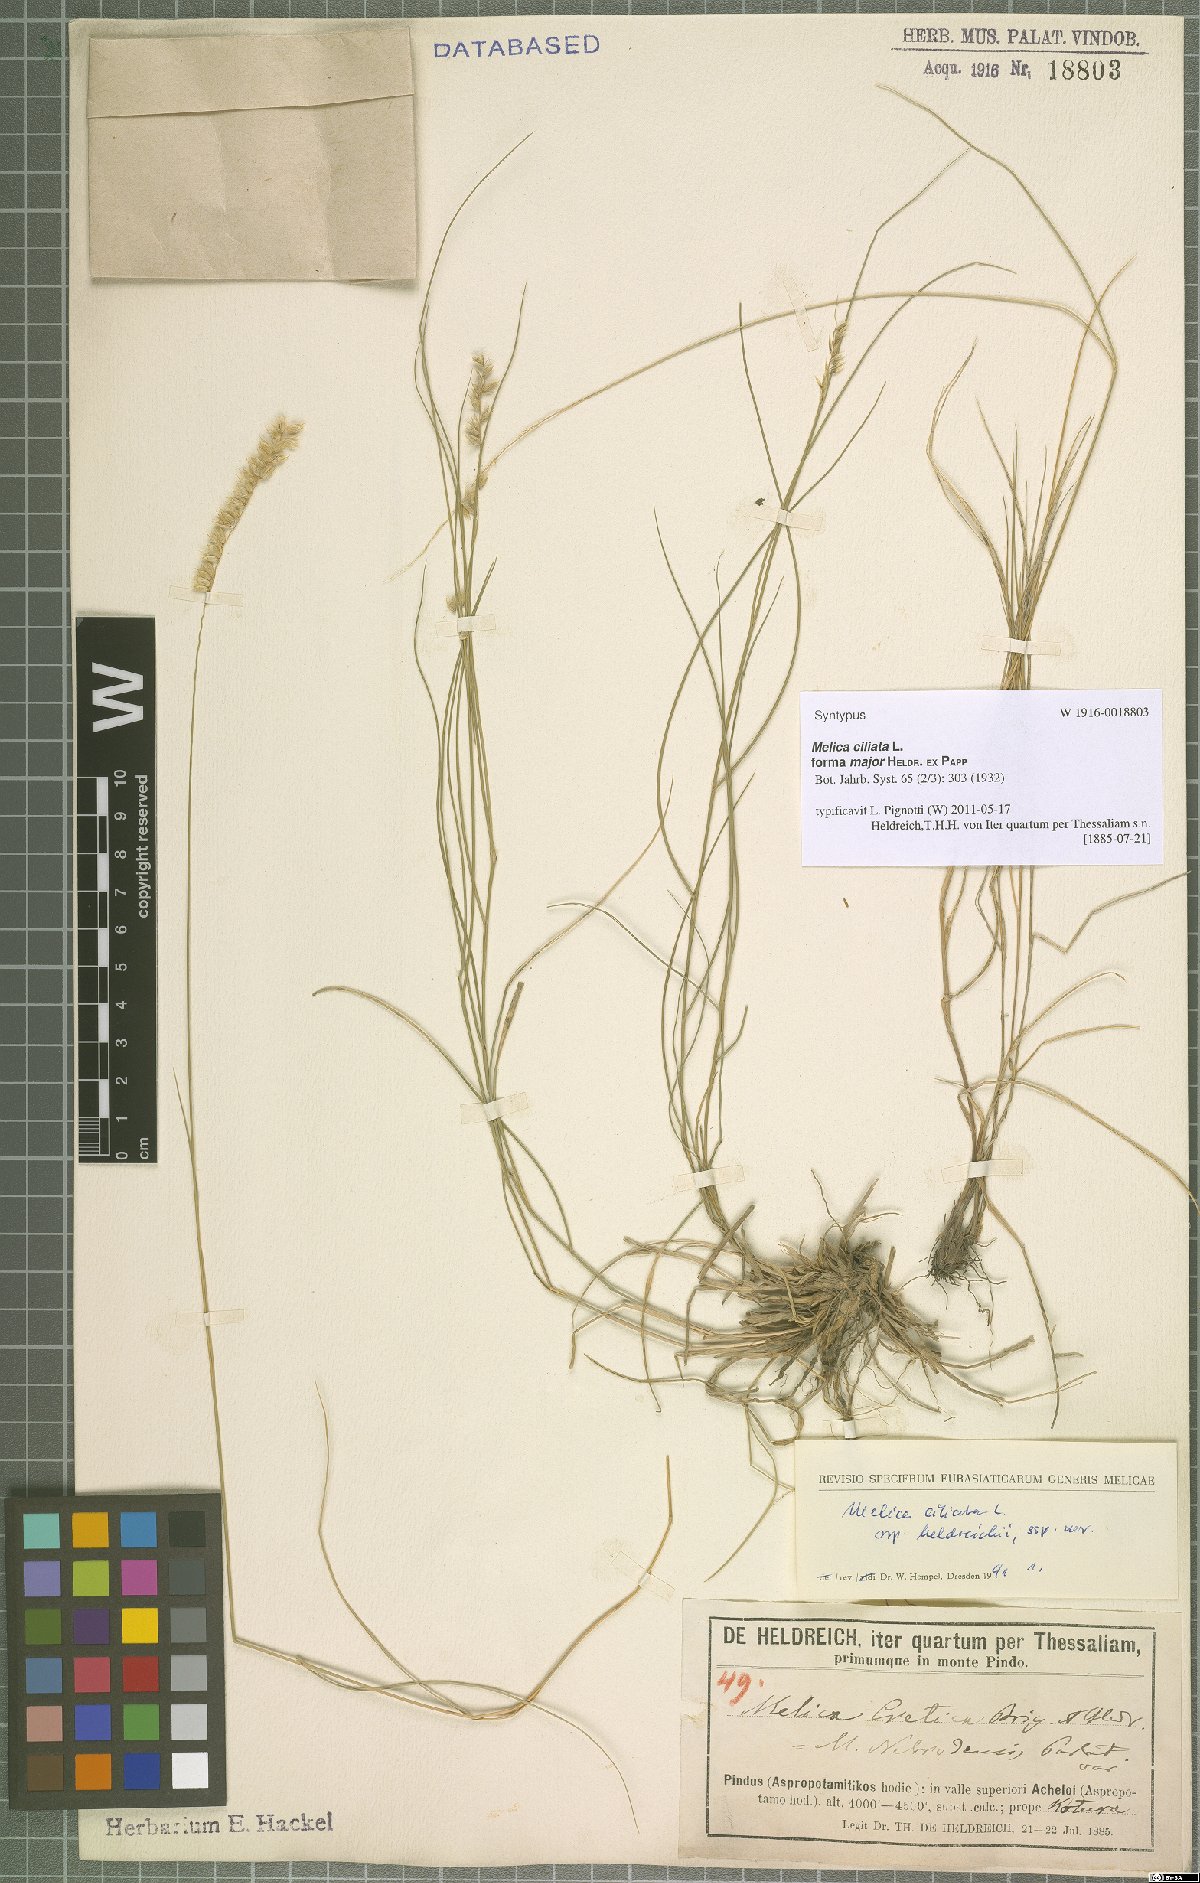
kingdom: Plantae
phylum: Tracheophyta
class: Liliopsida
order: Poales
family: Poaceae
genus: Melica
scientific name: Melica ciliata
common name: Hairy melicgrass
